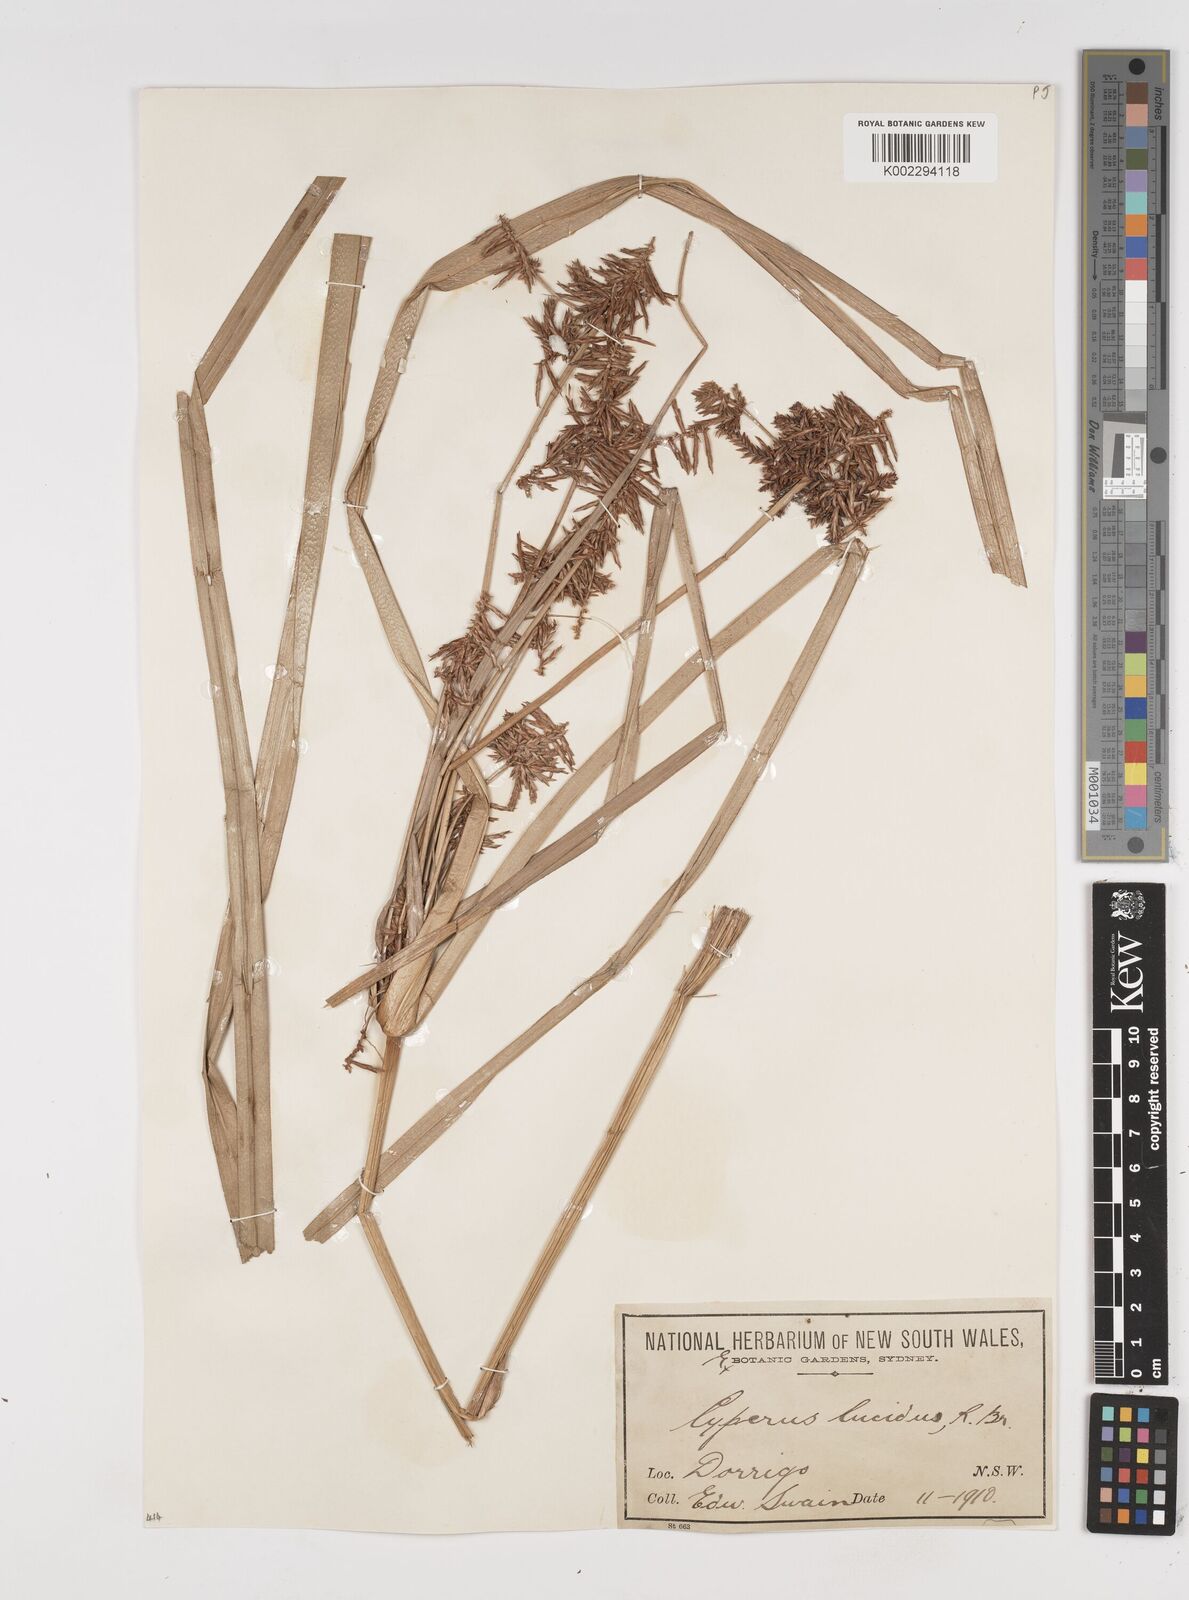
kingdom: Plantae
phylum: Tracheophyta
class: Liliopsida
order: Poales
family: Cyperaceae
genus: Cyperus
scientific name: Cyperus lucidus
